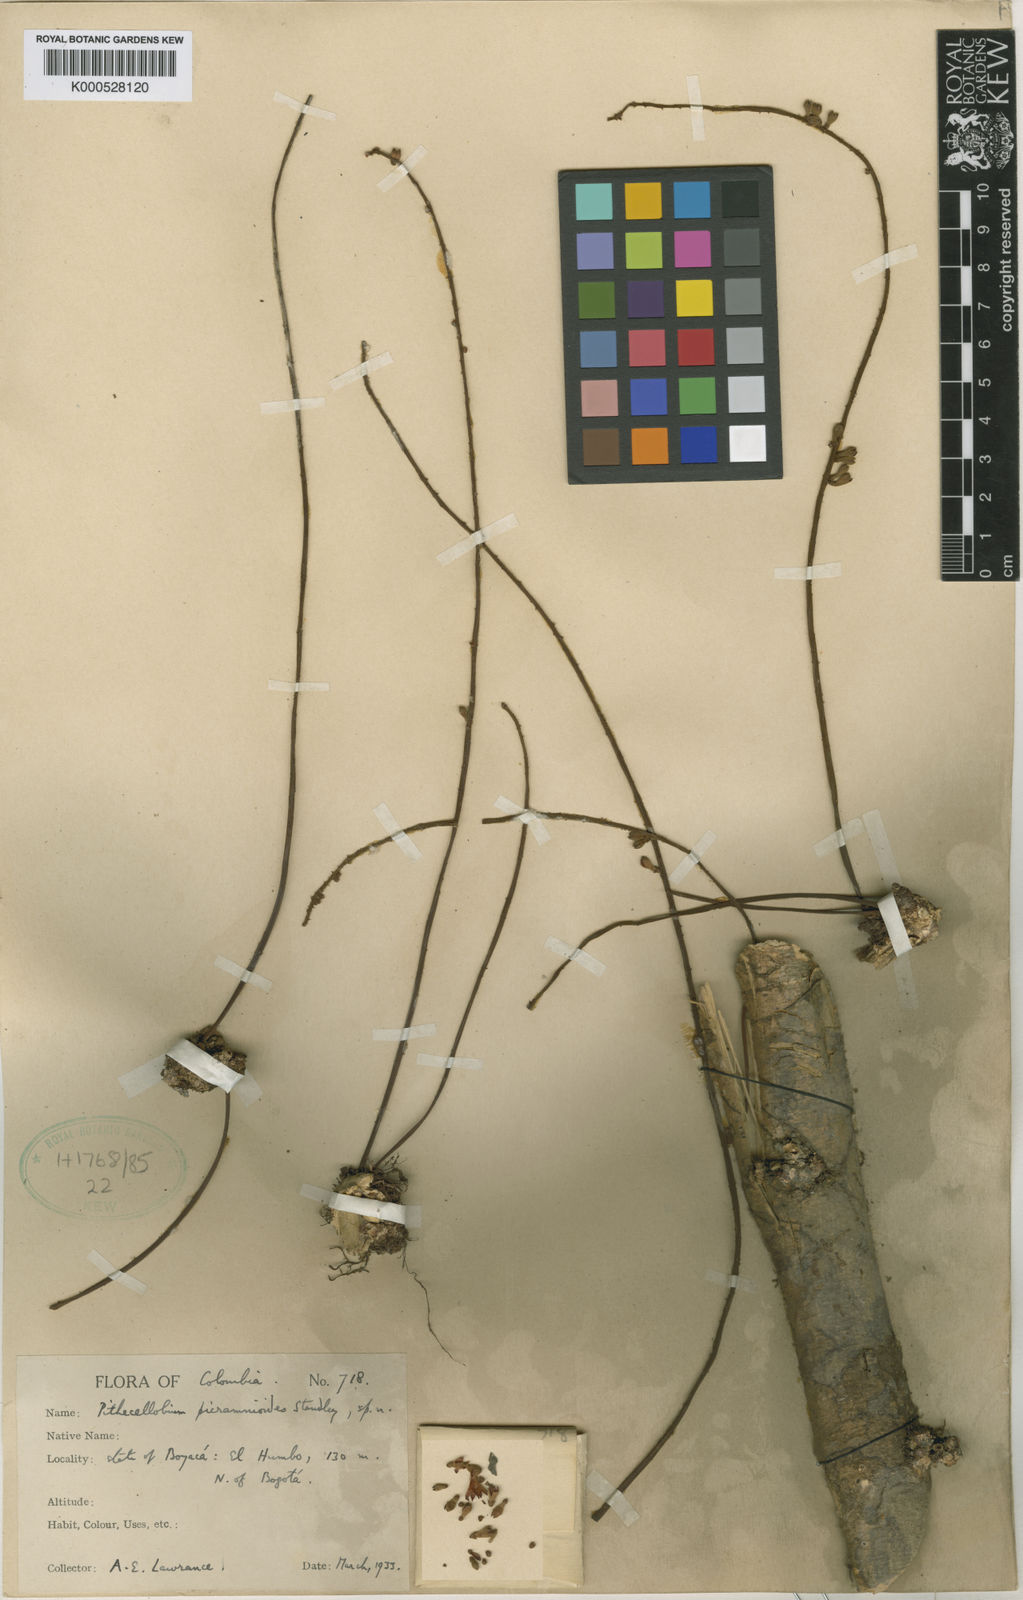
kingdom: Plantae
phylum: Tracheophyta
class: Magnoliopsida
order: Fabales
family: Fabaceae
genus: Zygia
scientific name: Zygia picramnioides
